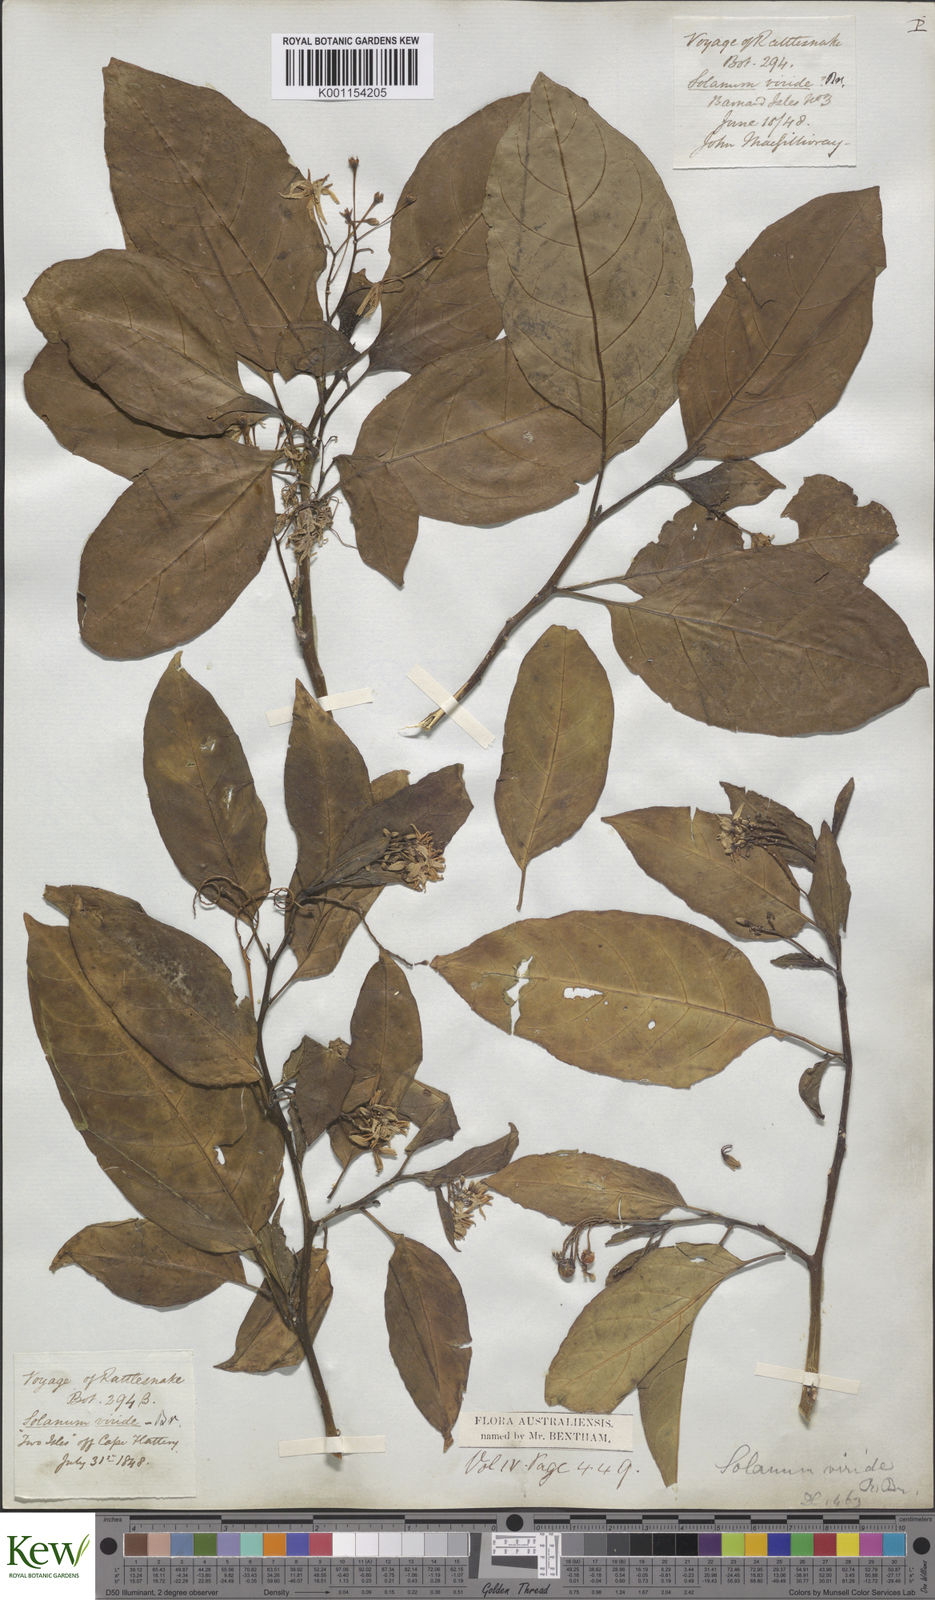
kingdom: Plantae
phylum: Tracheophyta
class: Magnoliopsida
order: Solanales
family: Solanaceae
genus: Solanum
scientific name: Solanum viridifolium
